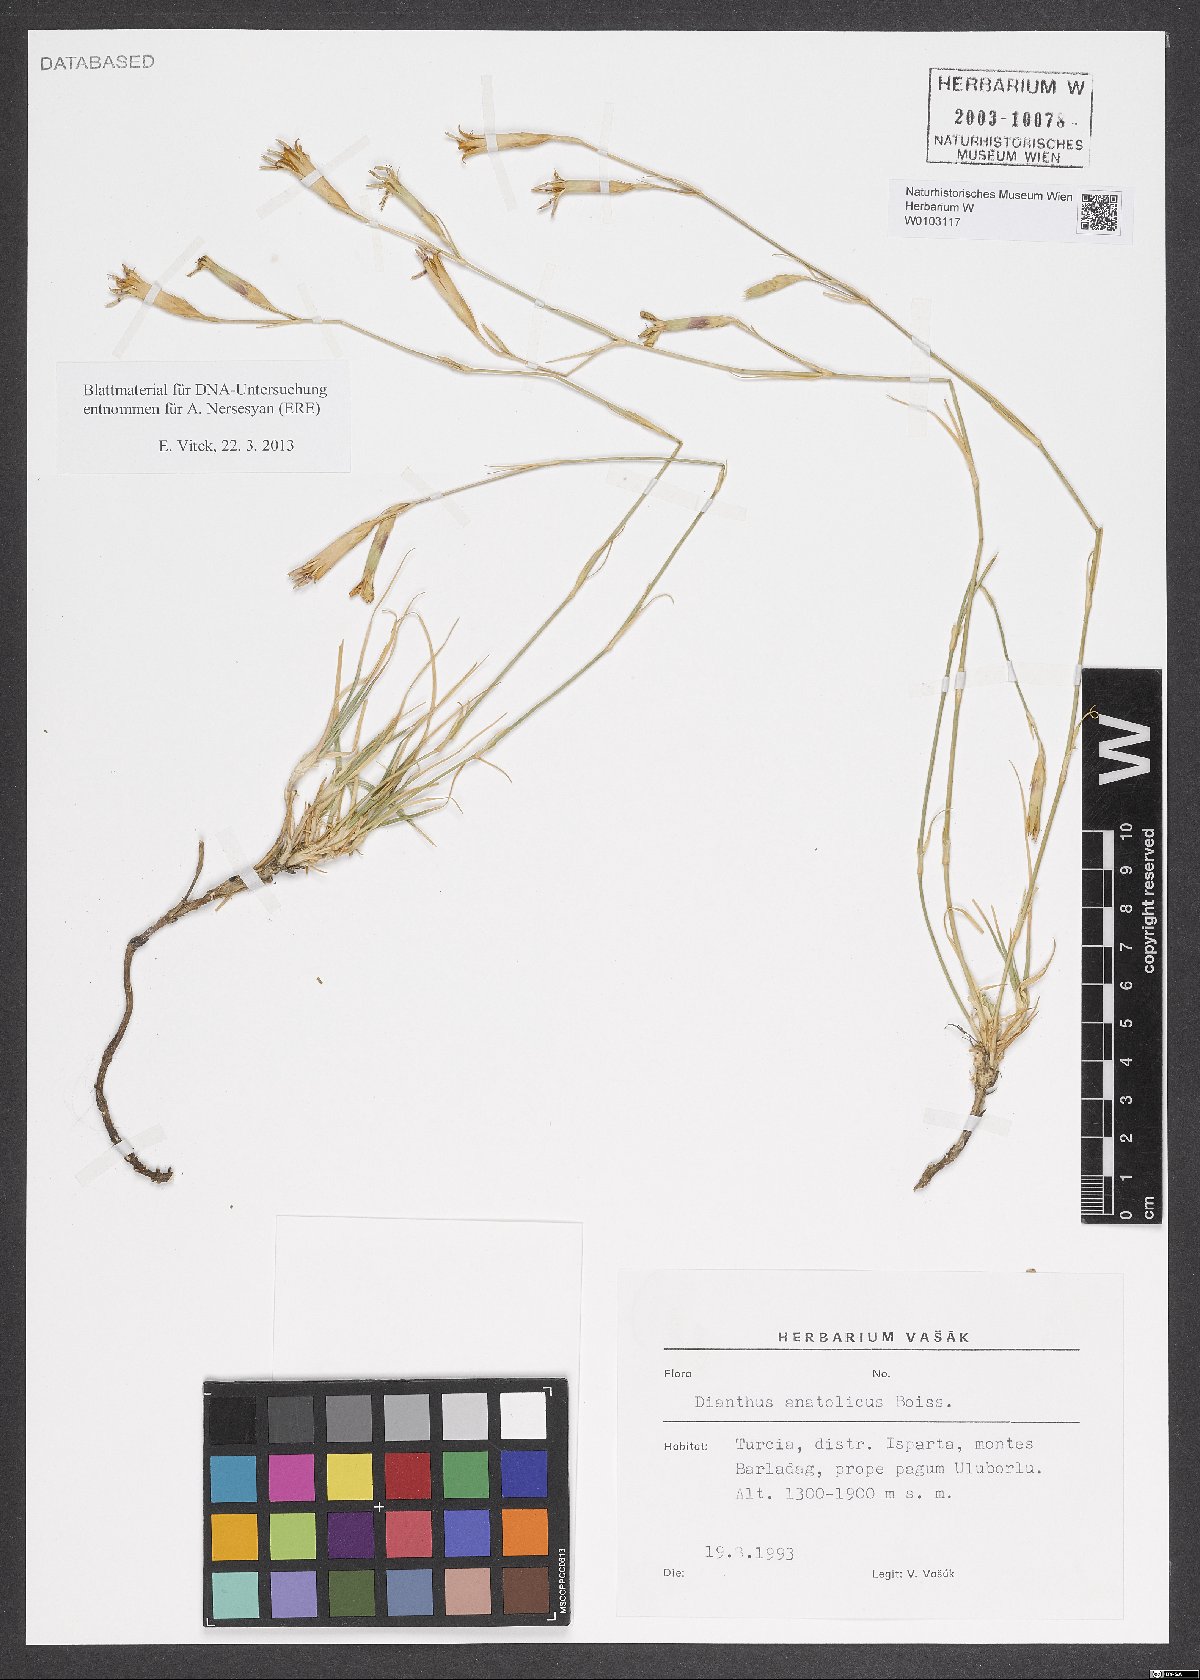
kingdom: Plantae
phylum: Tracheophyta
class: Magnoliopsida
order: Caryophyllales
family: Caryophyllaceae
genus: Dianthus
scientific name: Dianthus anatolicus
